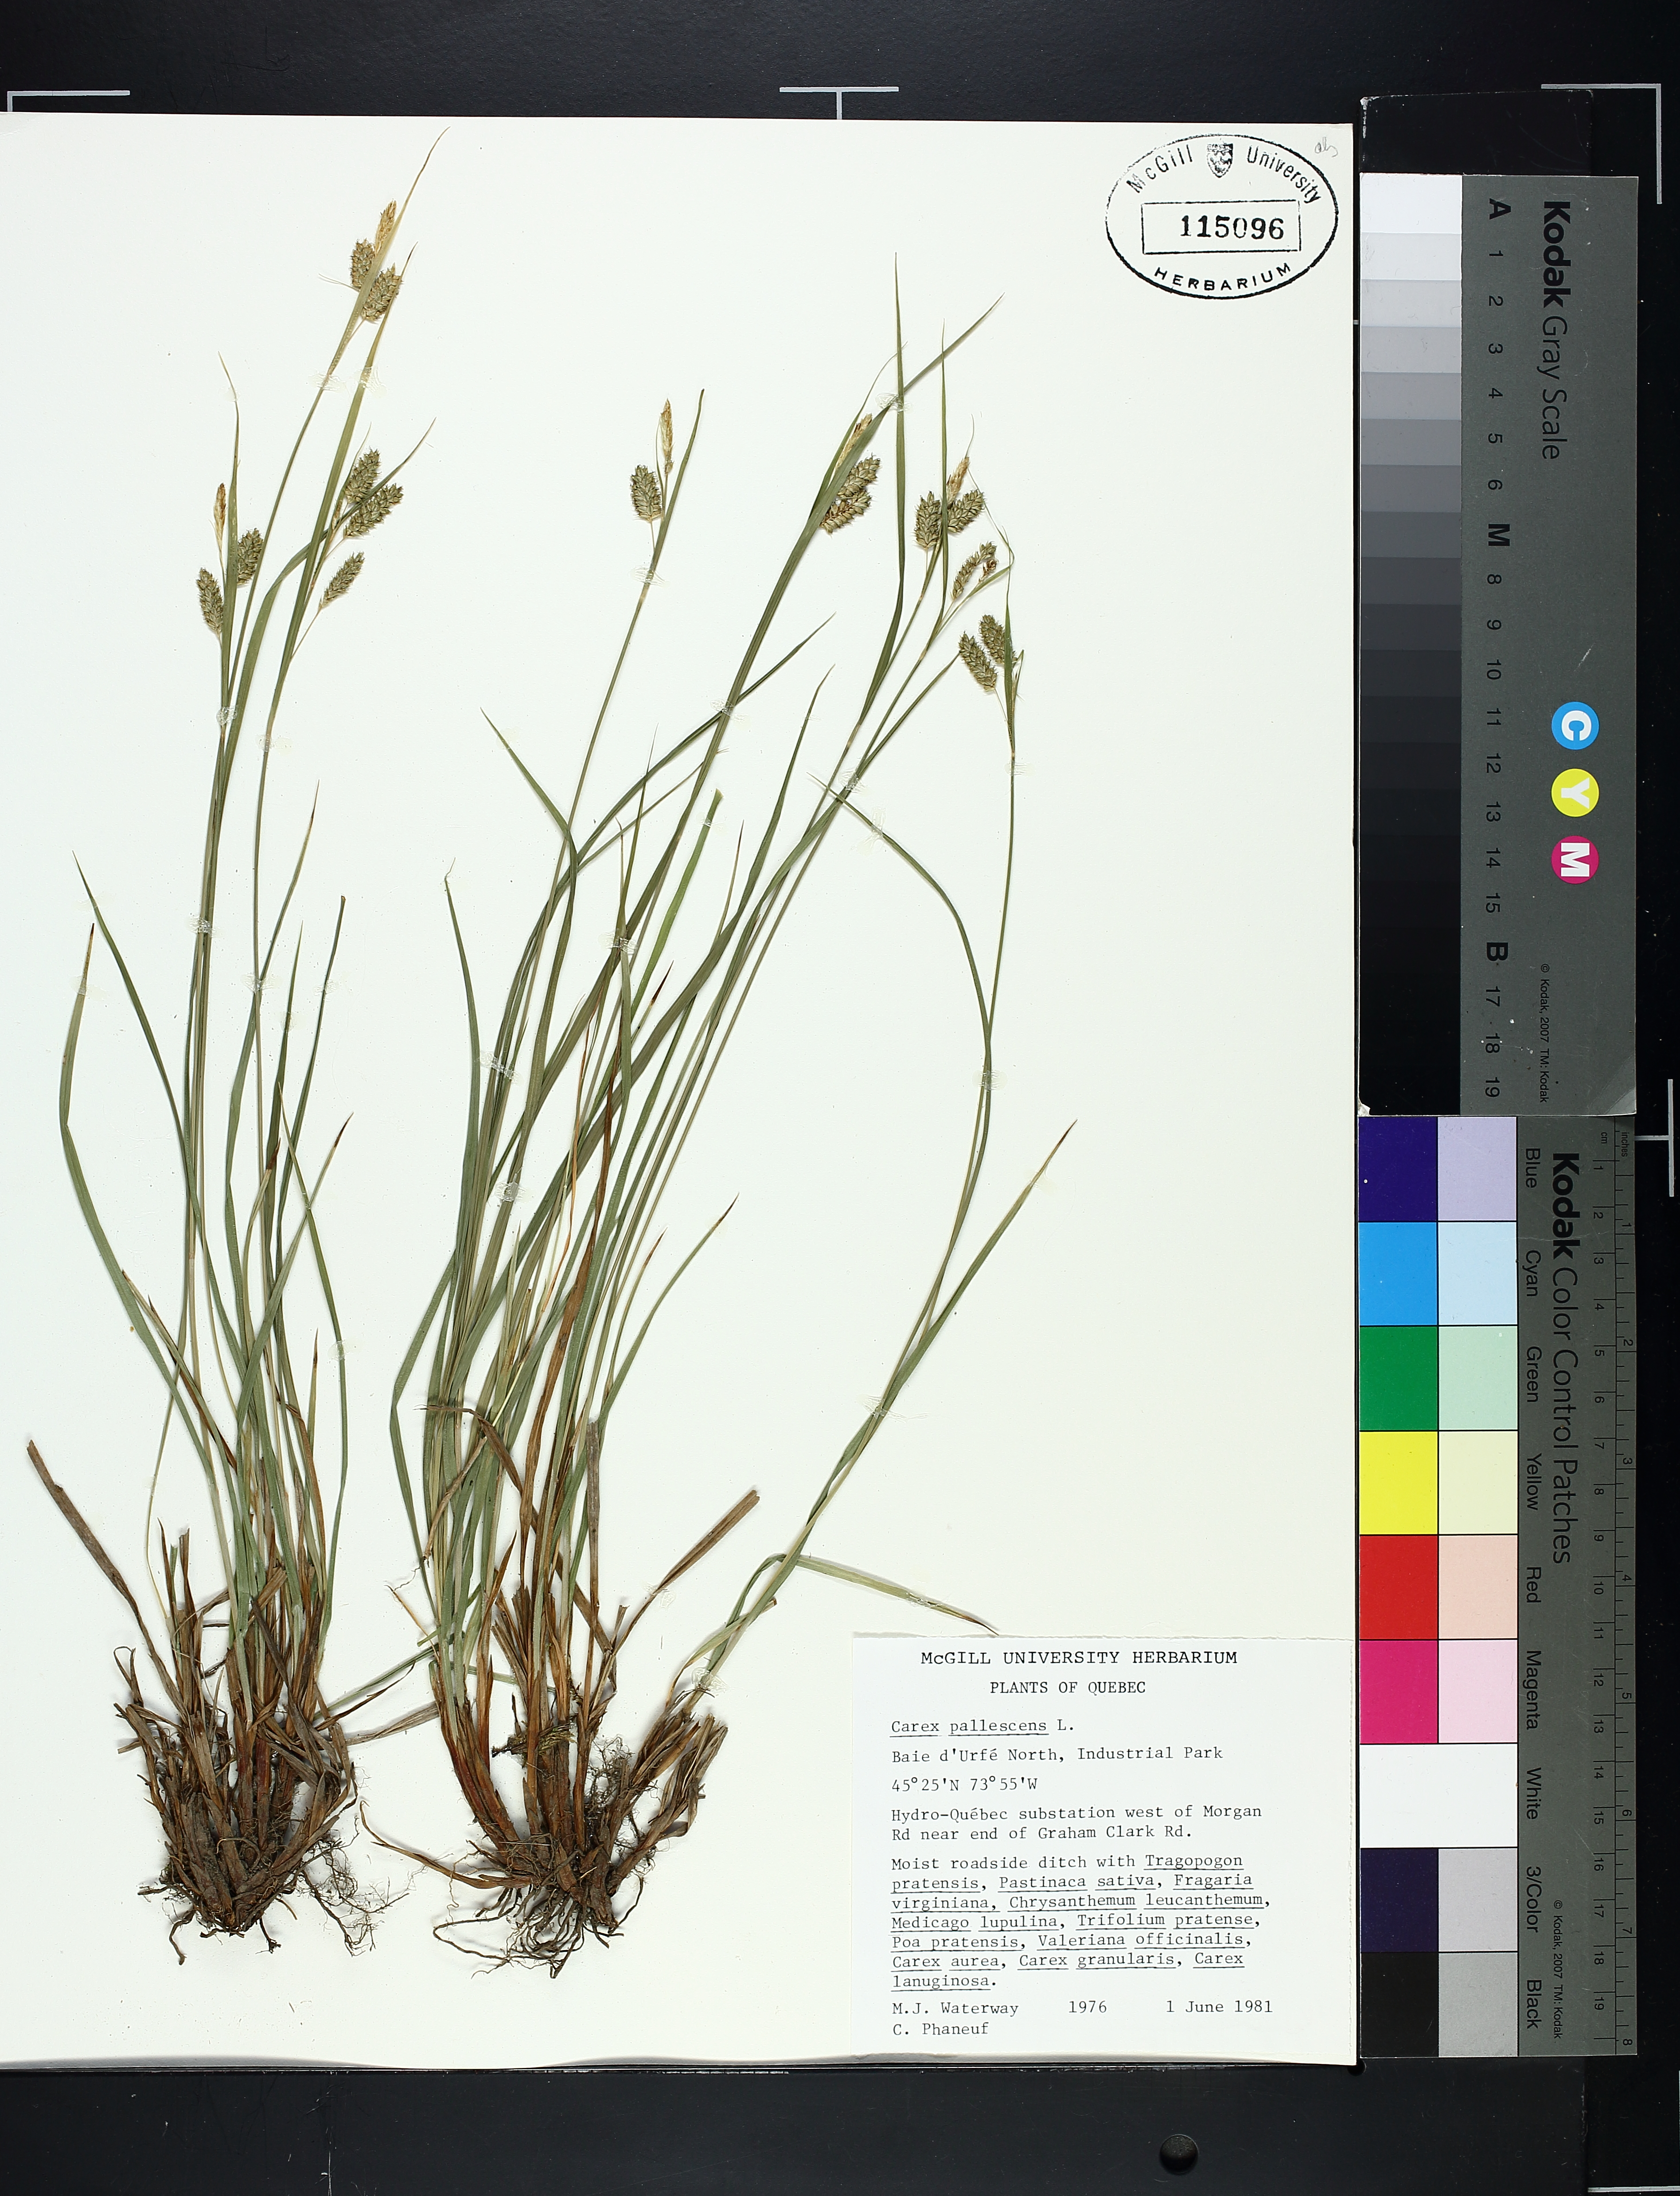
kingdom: Plantae
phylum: Tracheophyta
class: Liliopsida
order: Poales
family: Cyperaceae
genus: Carex
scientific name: Carex pallescens
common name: Pale sedge
